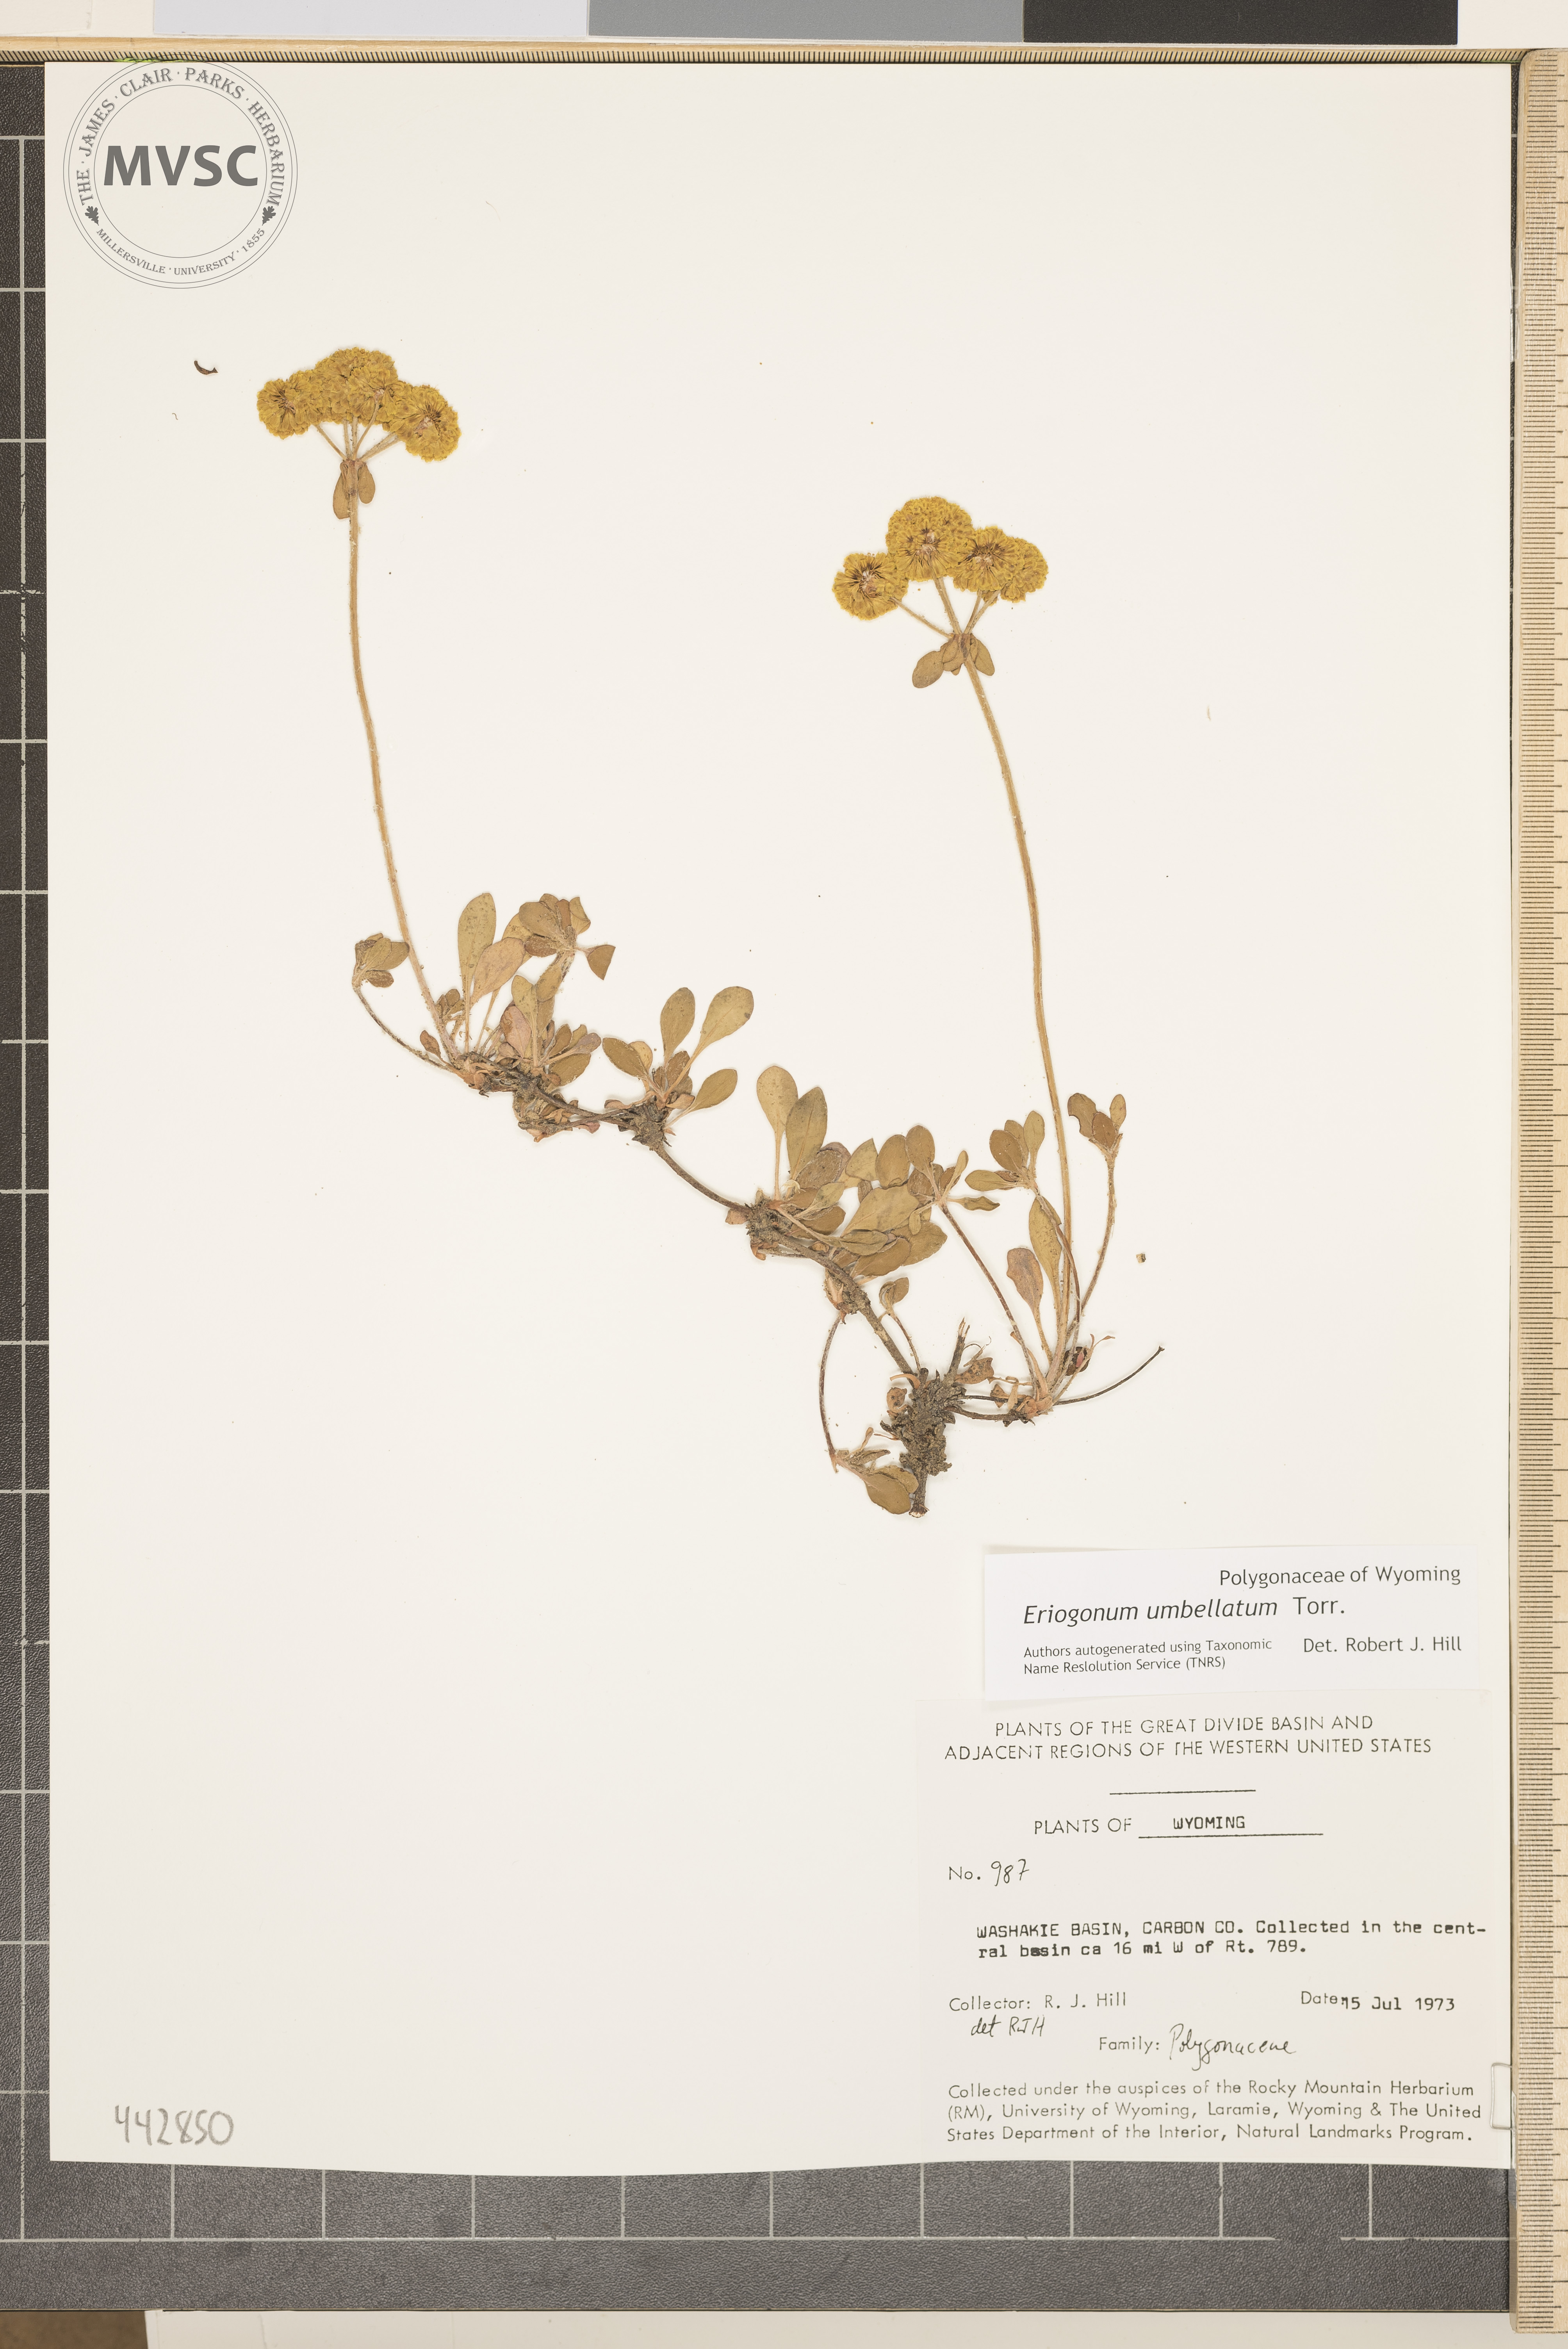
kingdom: Plantae
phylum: Tracheophyta
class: Magnoliopsida
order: Caryophyllales
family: Polygonaceae
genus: Eriogonum
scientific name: Eriogonum umbellatum
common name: Sulfur-buckwheat
